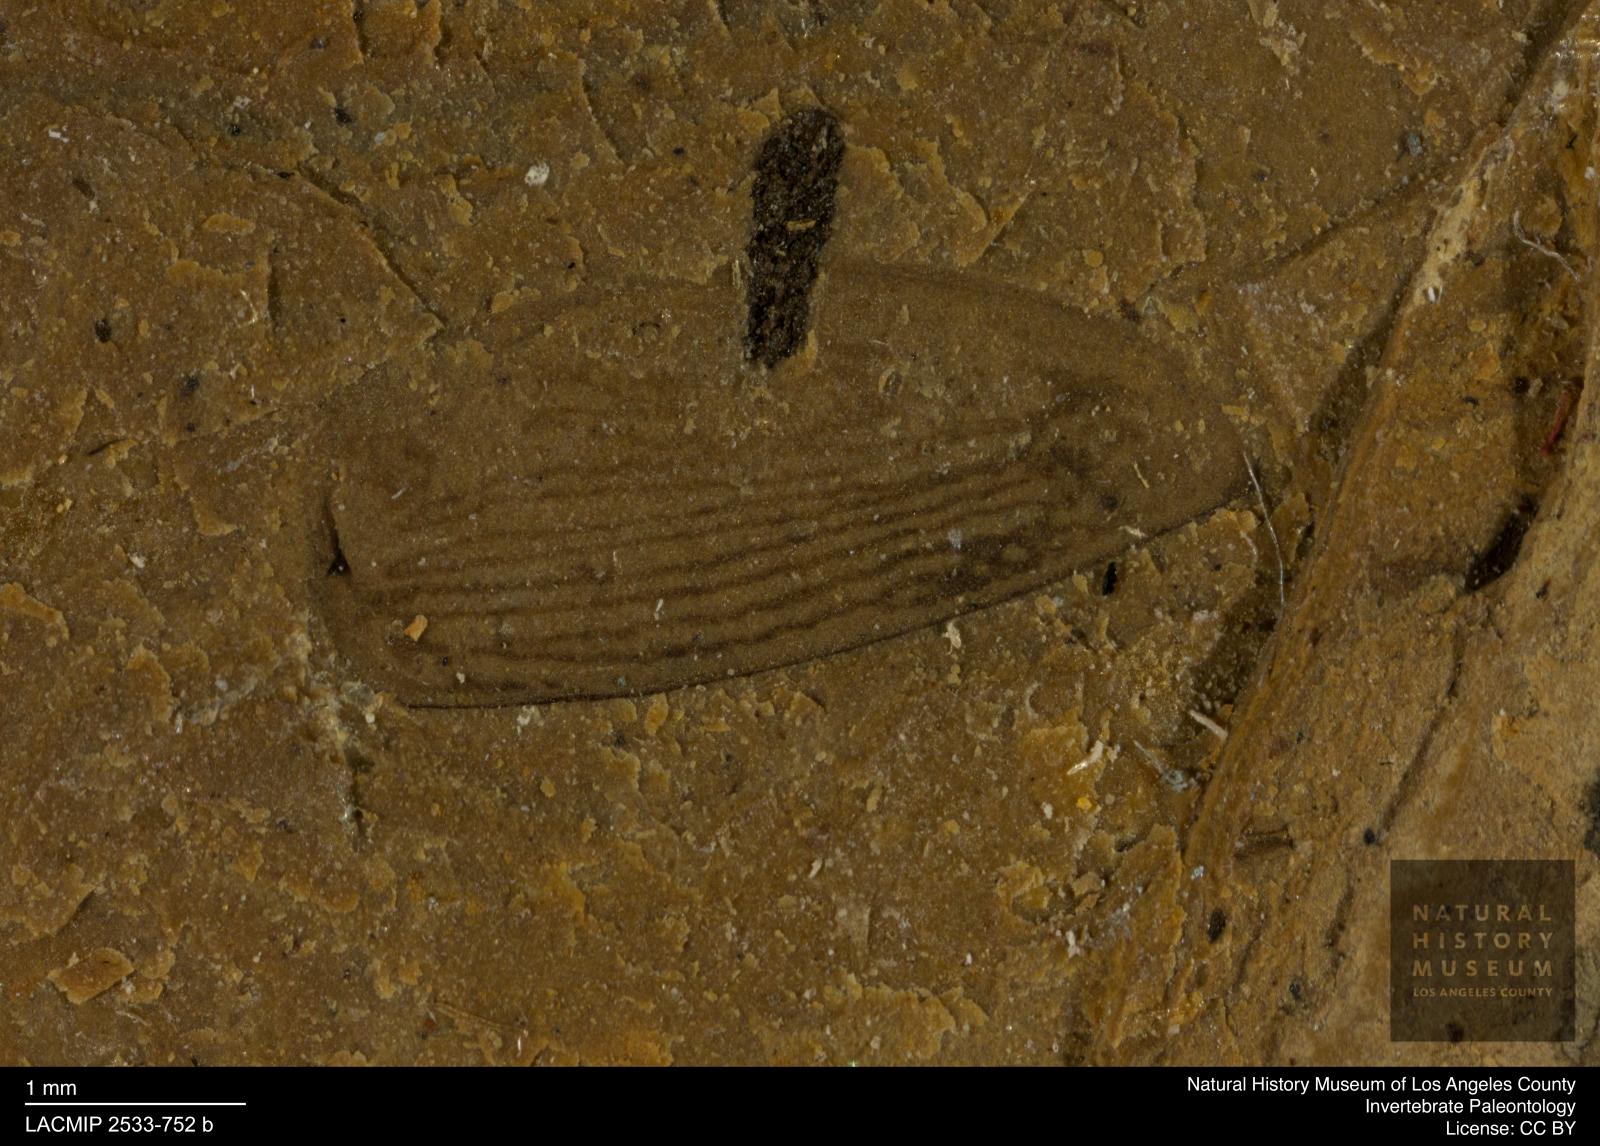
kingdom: Animalia
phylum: Arthropoda
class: Insecta
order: Coleoptera
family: Dytiscidae
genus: Laccophilus
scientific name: Laccophilus Palaeogyrinus strigatus
